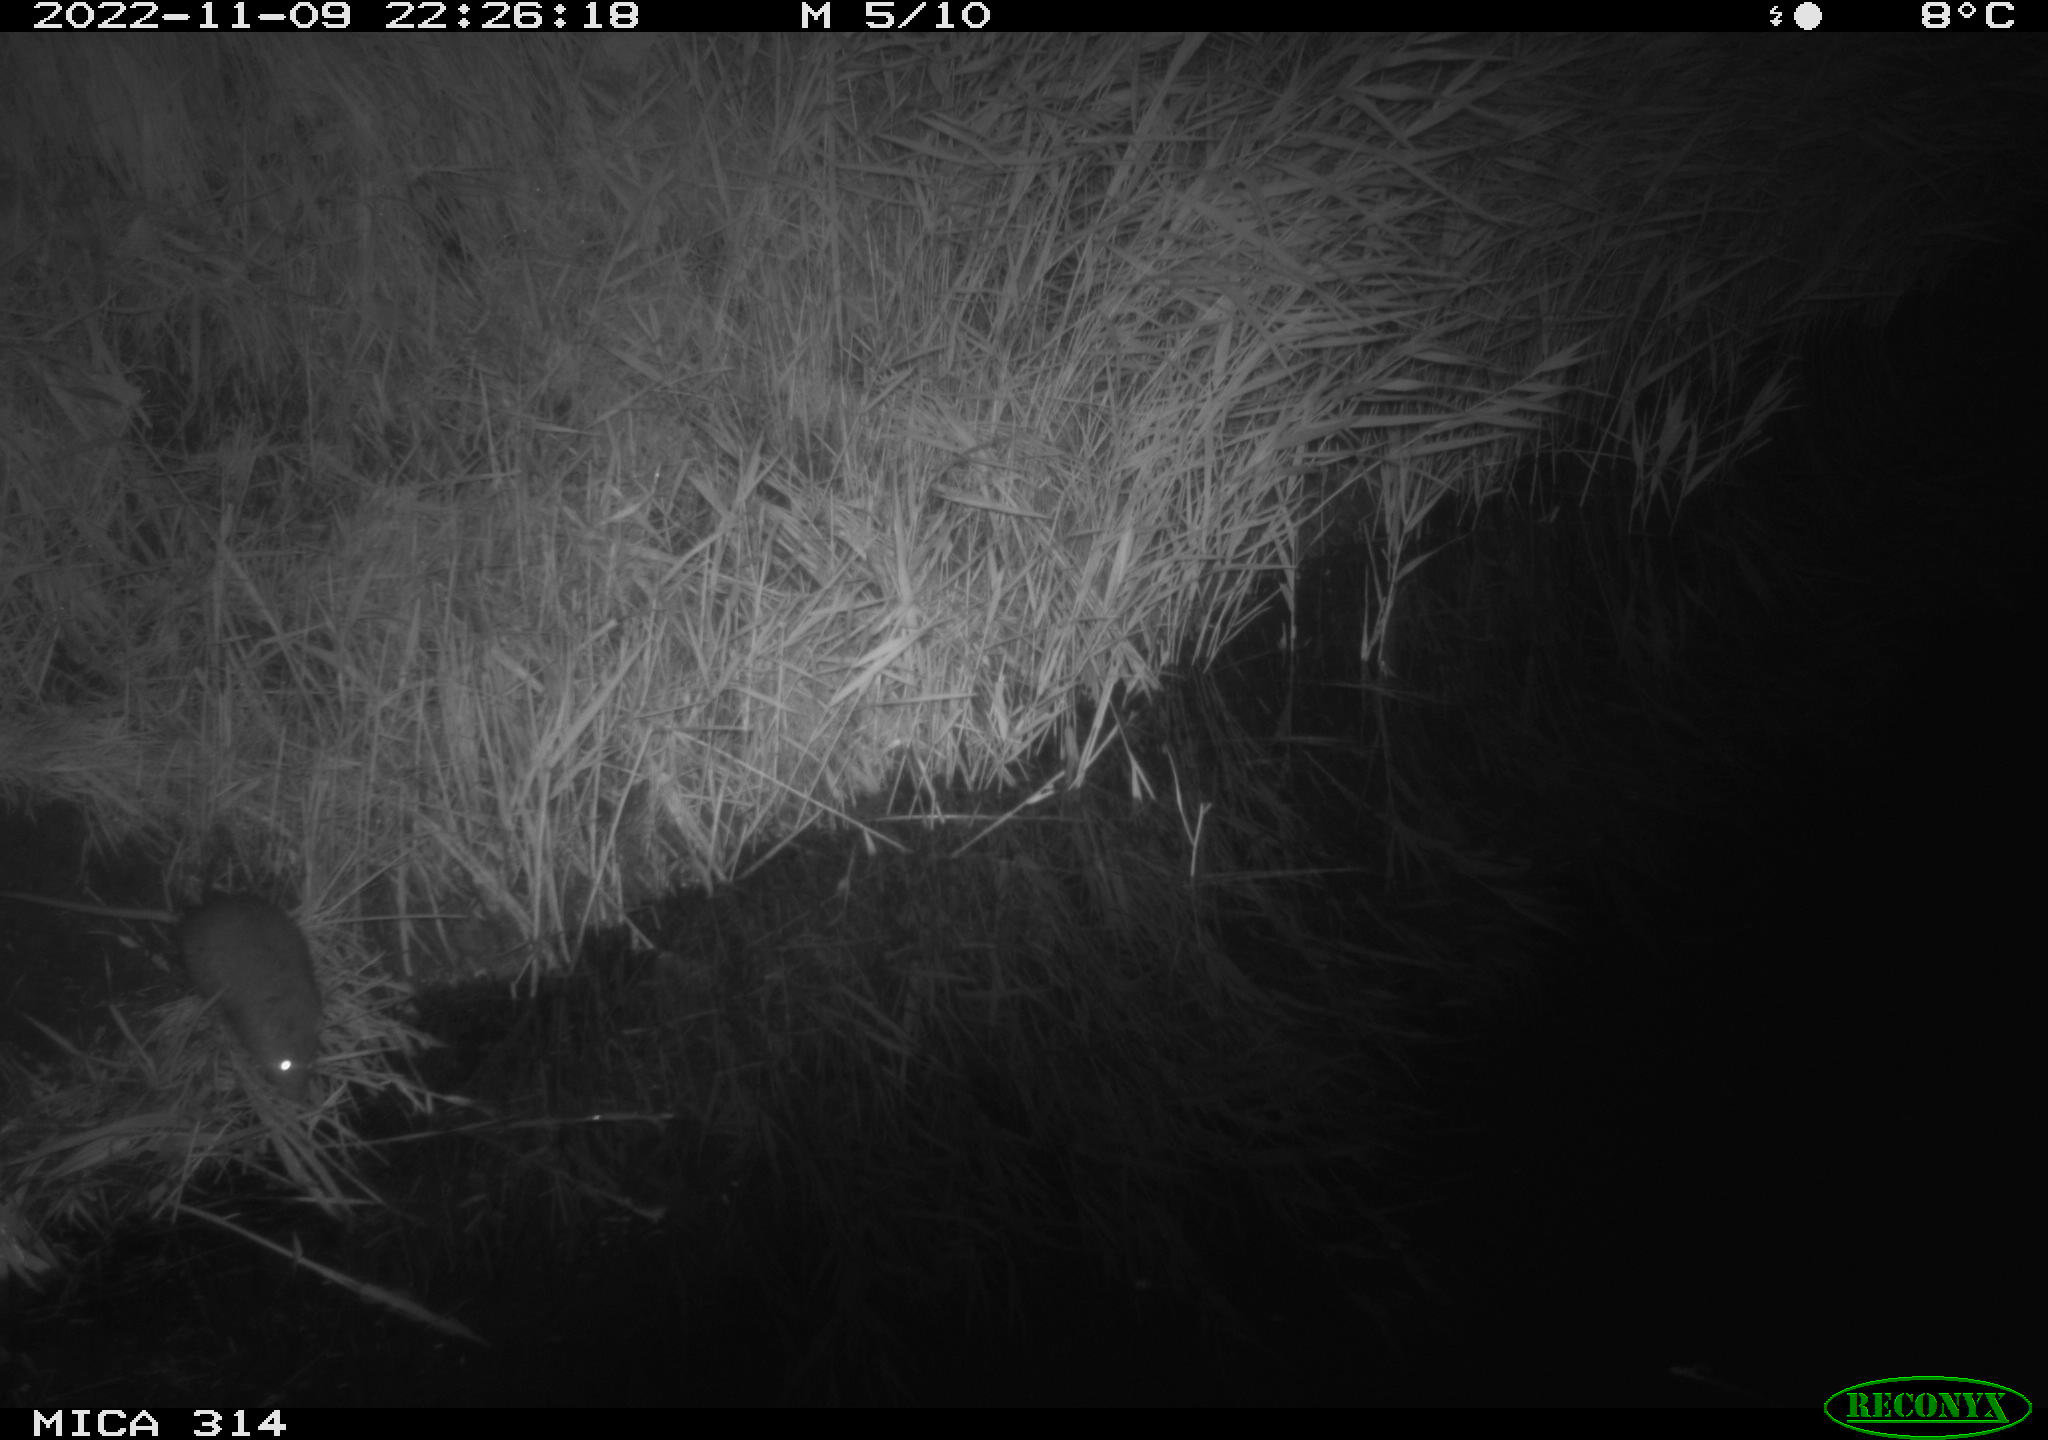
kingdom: Animalia
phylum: Chordata
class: Mammalia
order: Rodentia
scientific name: Rodentia
